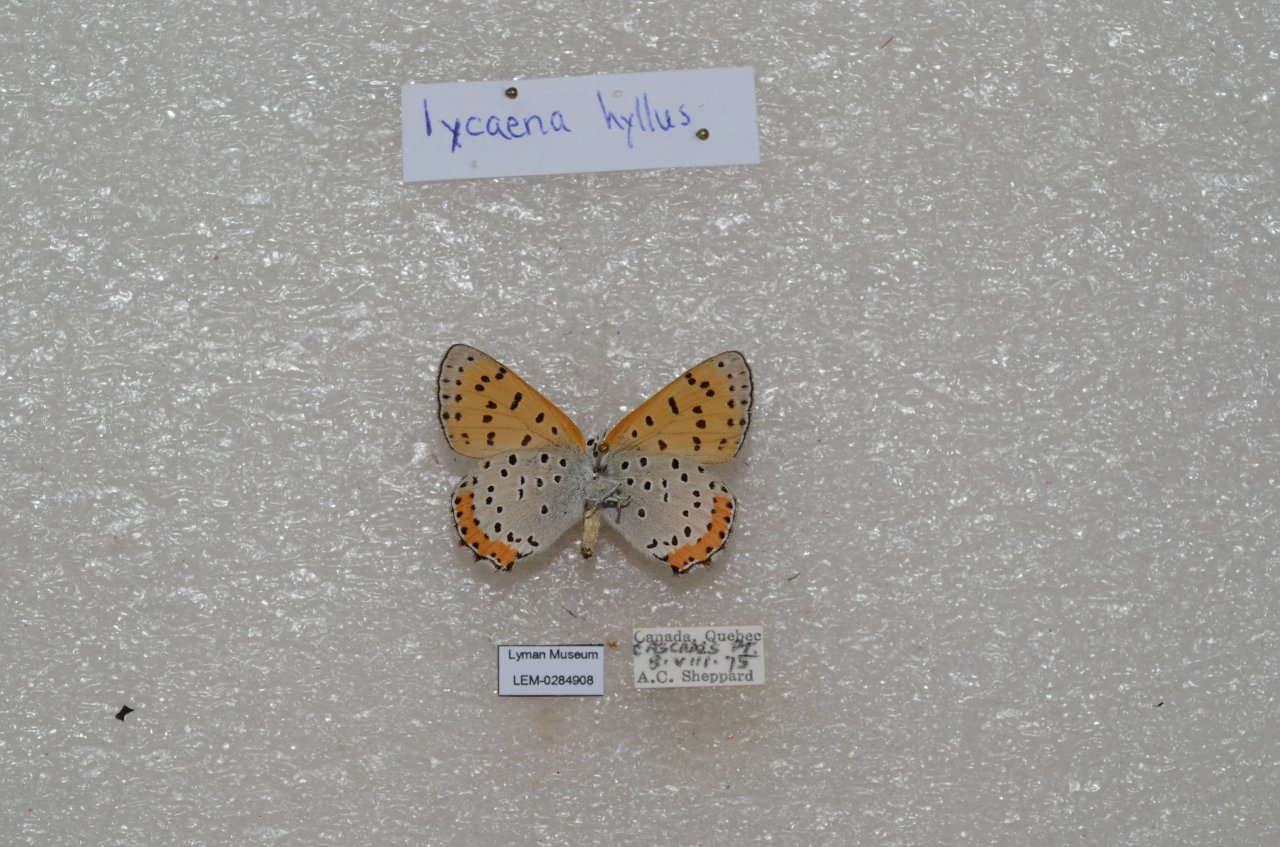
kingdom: Animalia
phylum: Arthropoda
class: Insecta
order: Lepidoptera
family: Sesiidae
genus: Sesia
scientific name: Sesia Lycaena hyllus
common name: Bronze Copper
